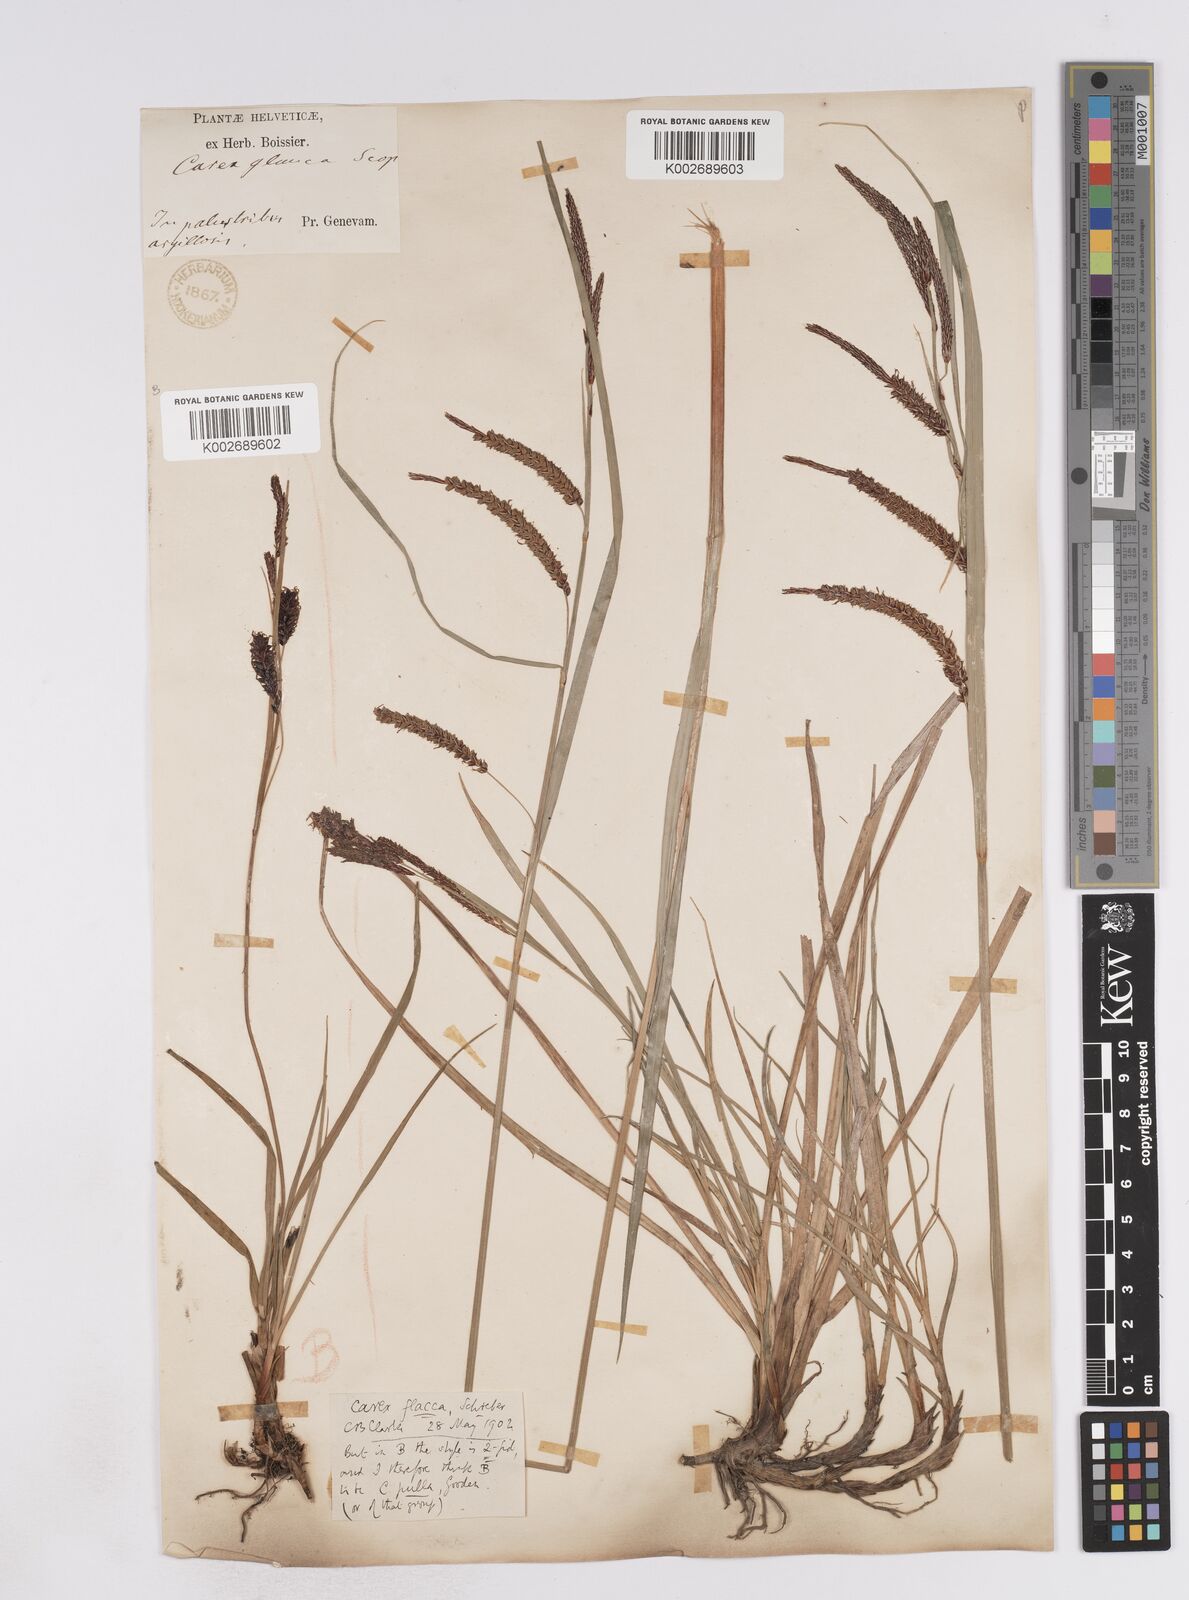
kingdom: Plantae
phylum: Tracheophyta
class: Liliopsida
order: Poales
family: Cyperaceae
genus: Carex
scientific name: Carex flacca
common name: Glaucous sedge
